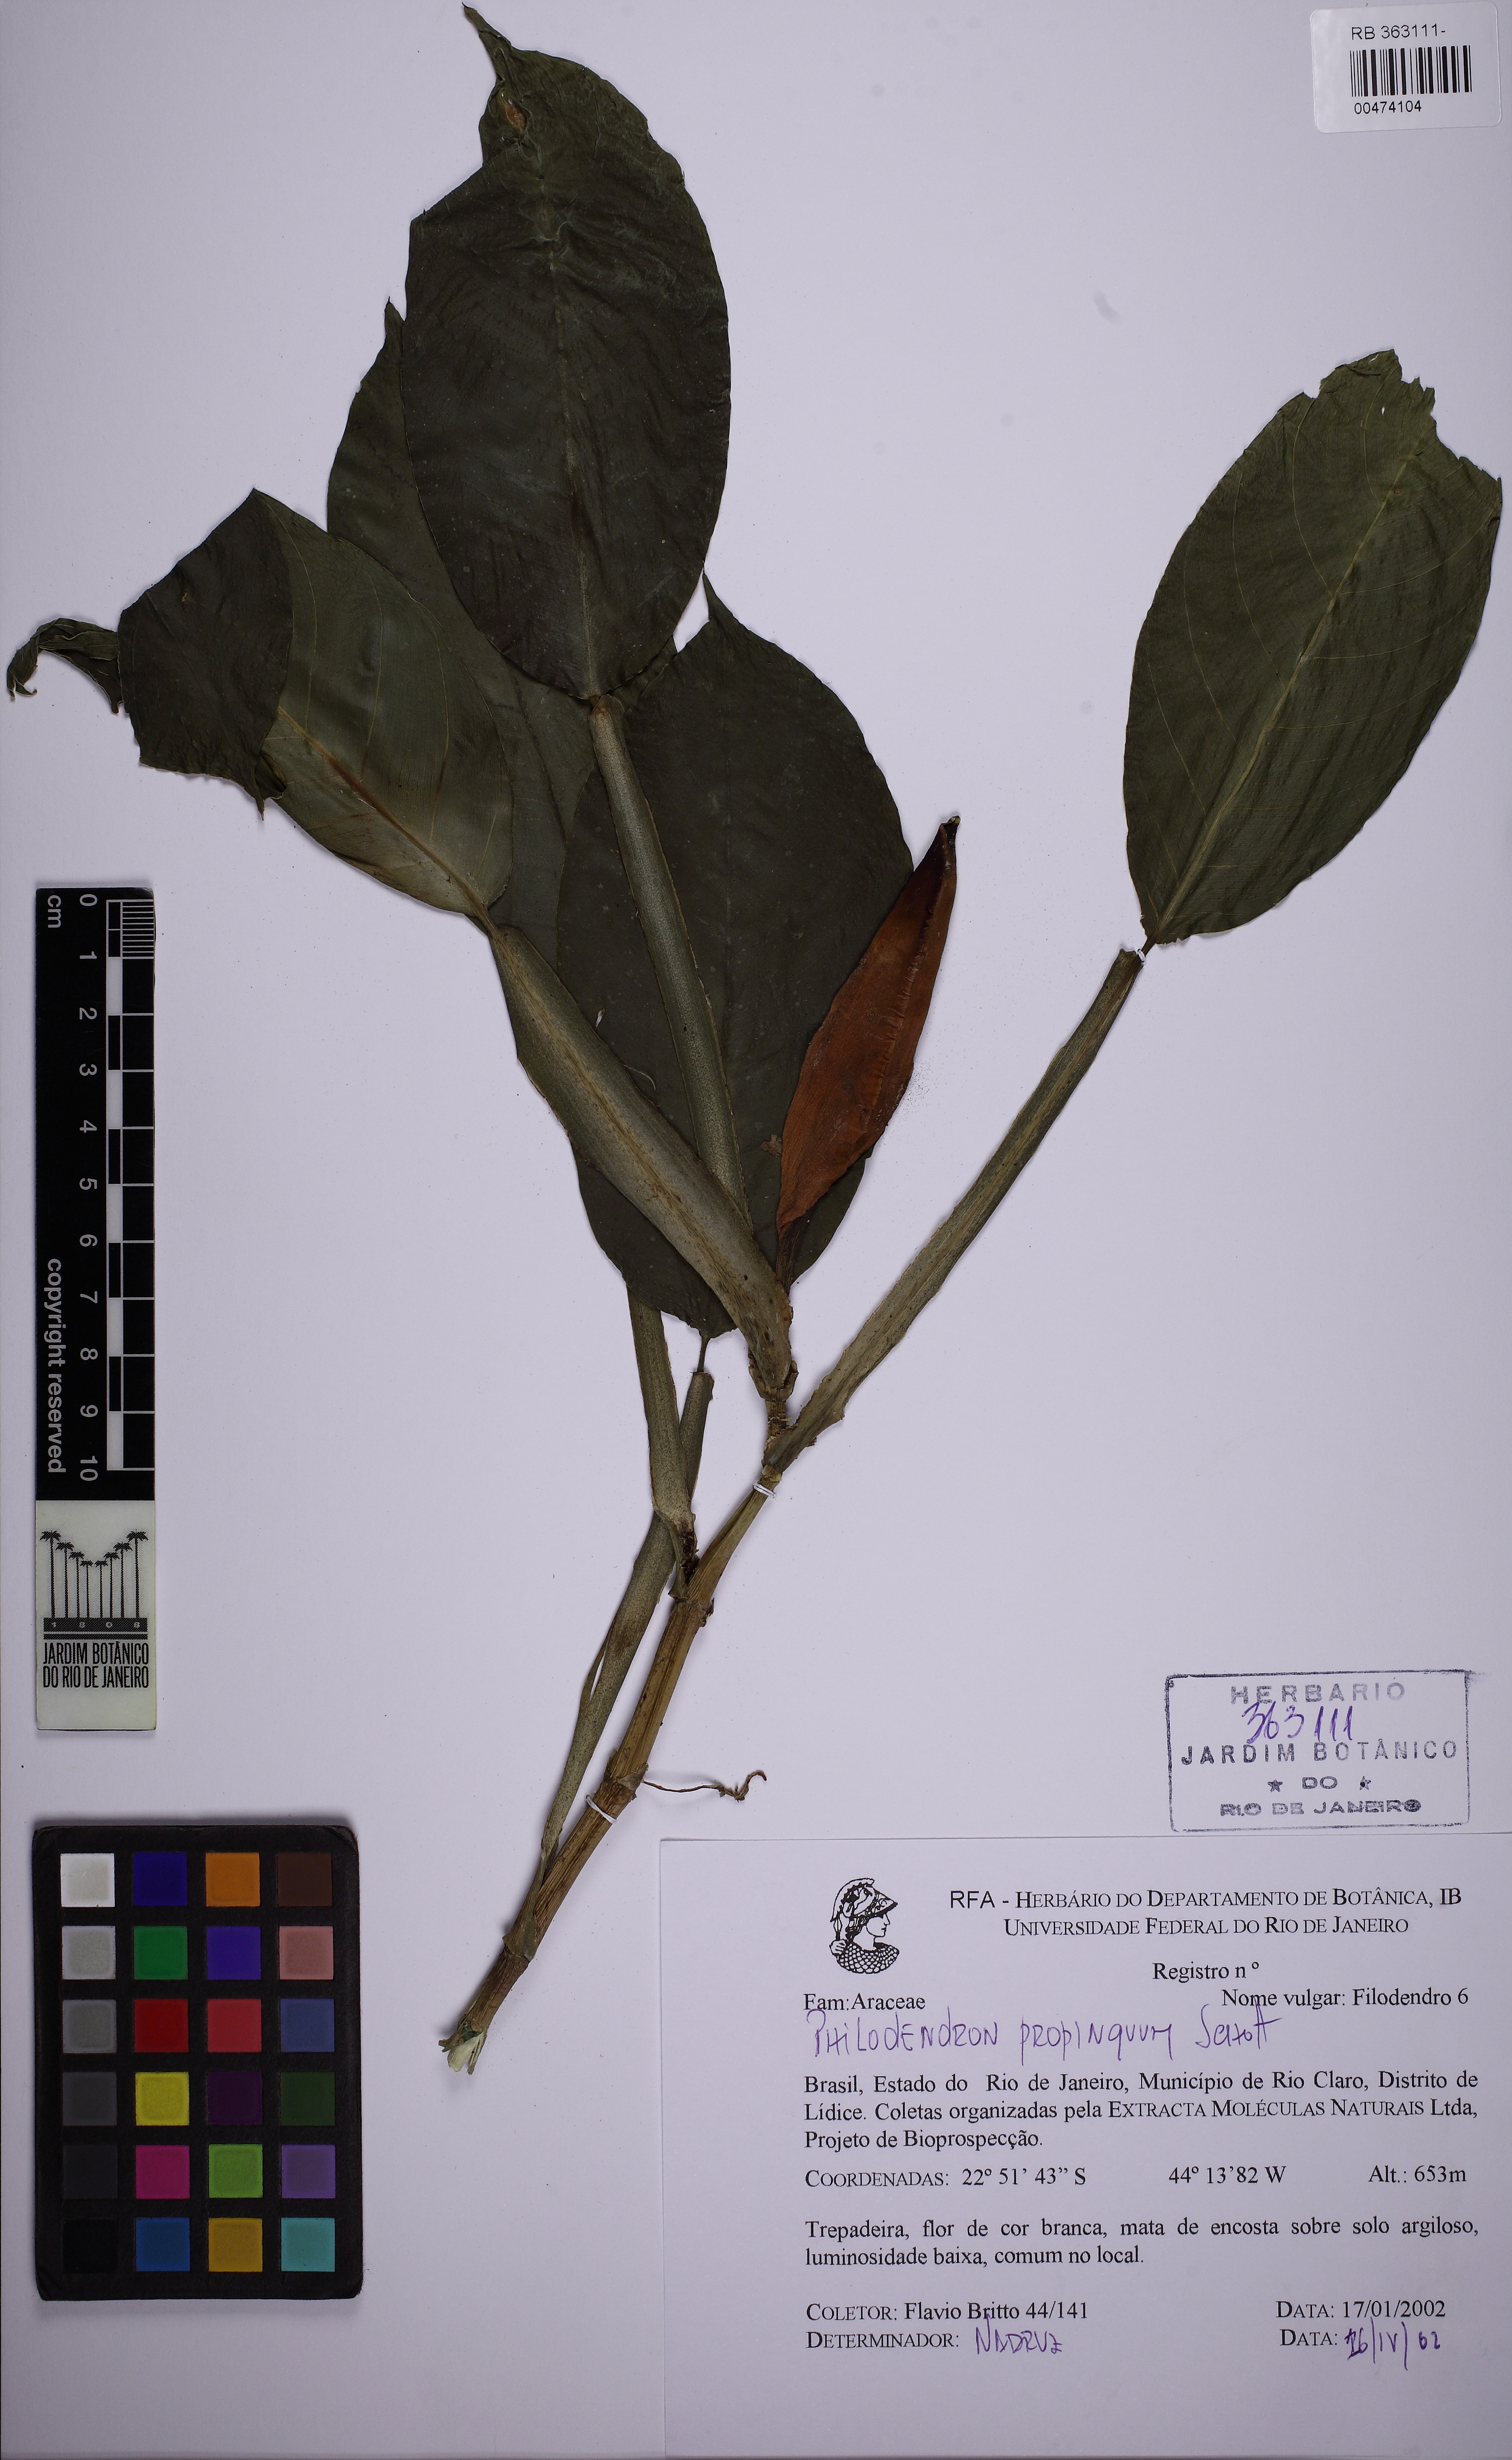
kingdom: Plantae
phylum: Tracheophyta
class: Liliopsida
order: Alismatales
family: Araceae
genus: Philodendron
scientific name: Philodendron propinquum
